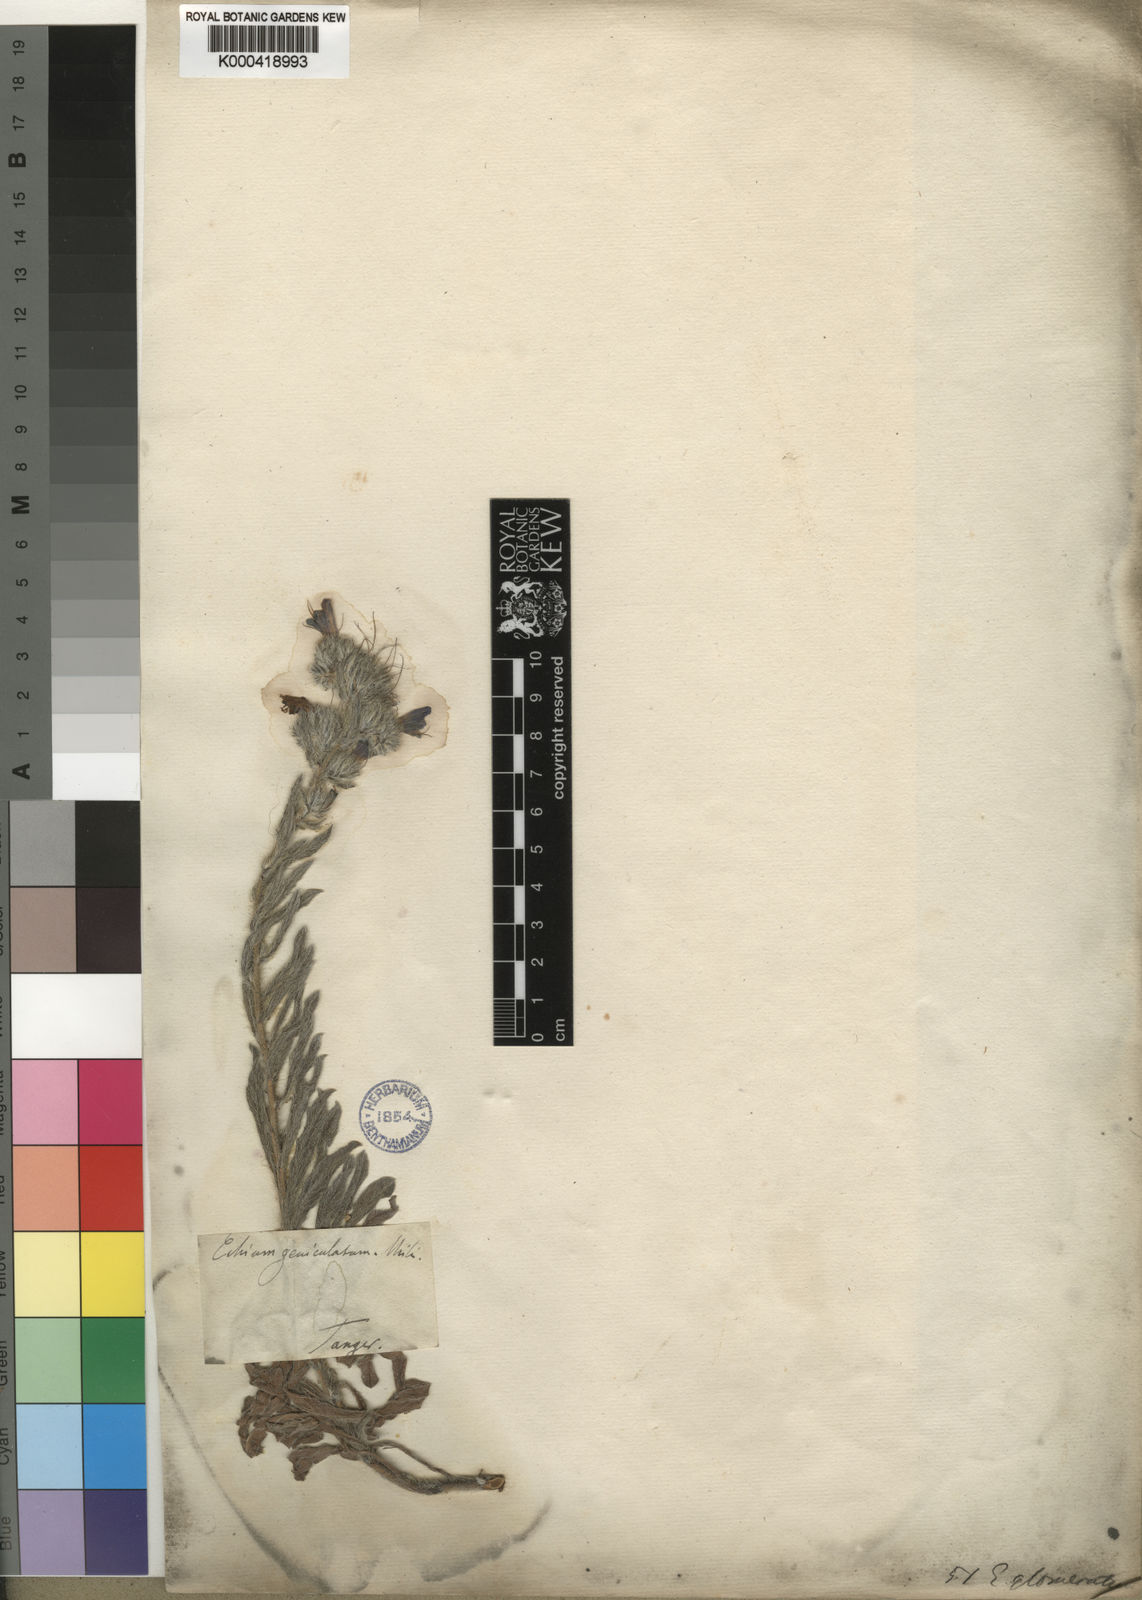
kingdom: Plantae
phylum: Tracheophyta
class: Magnoliopsida
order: Boraginales
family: Boraginaceae
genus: Echium
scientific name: Echium angustifolium
